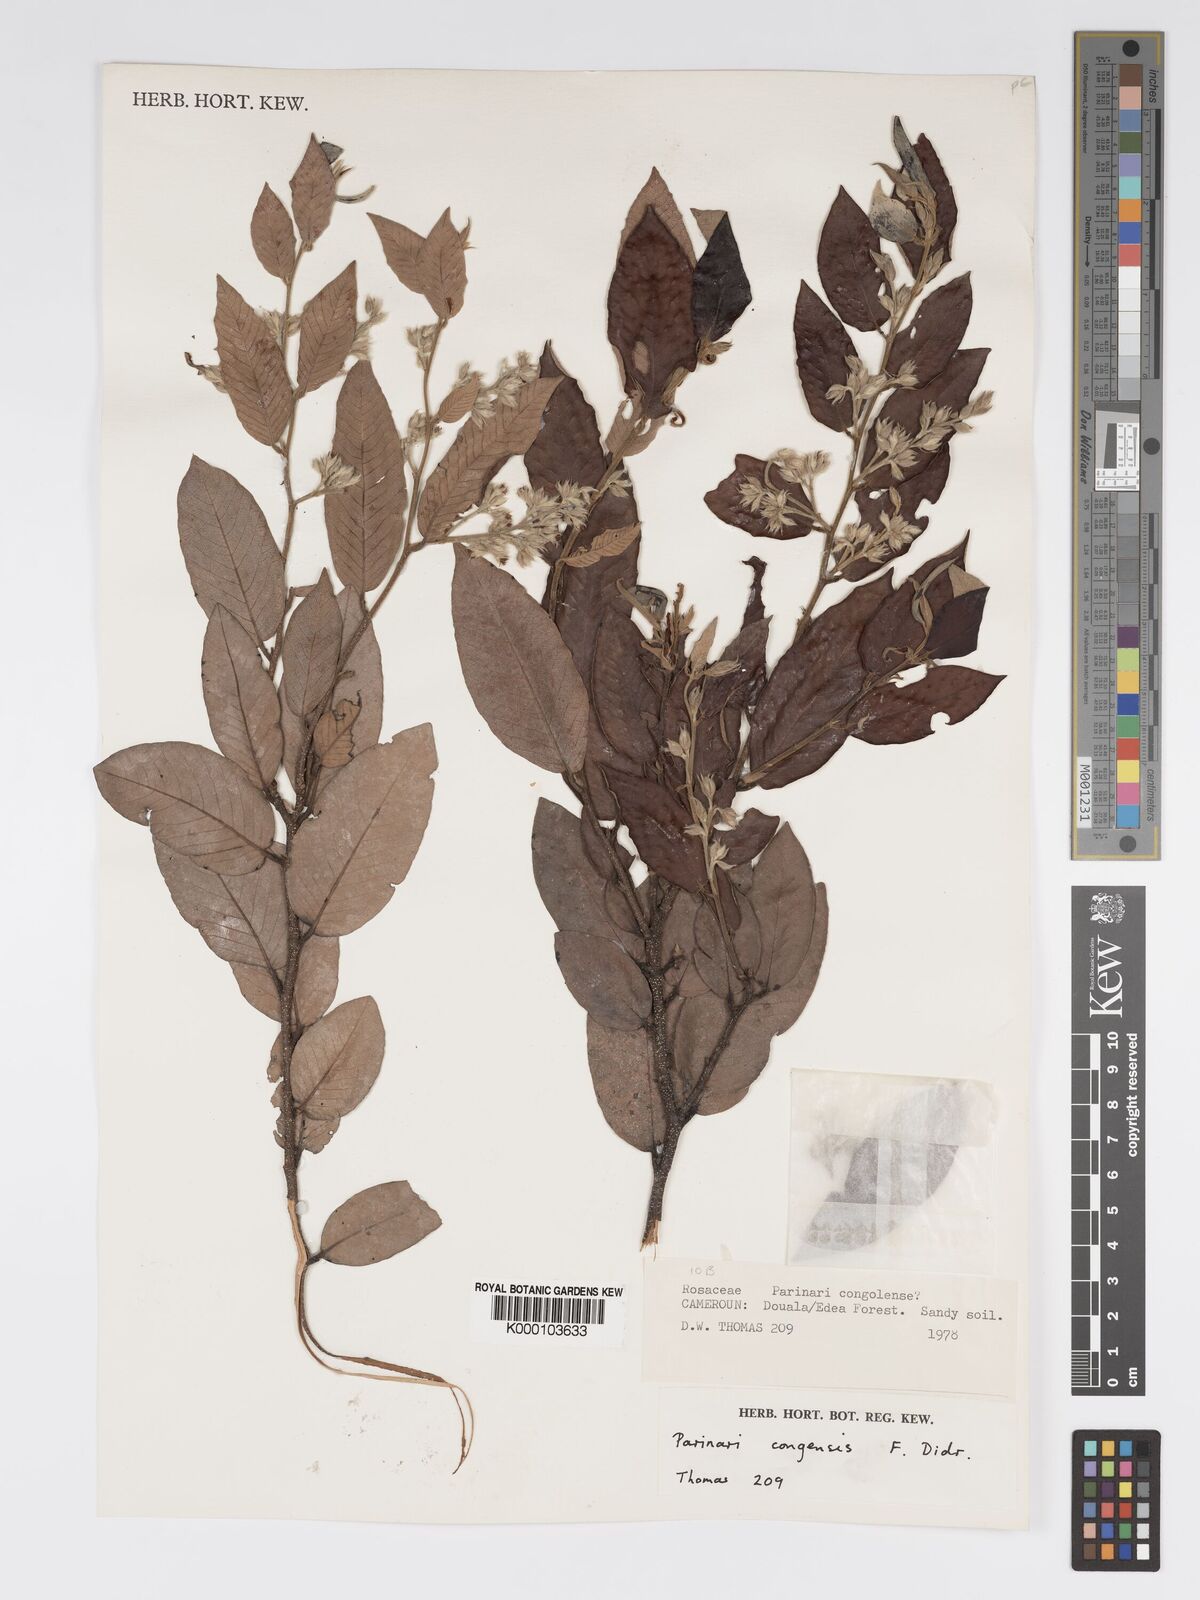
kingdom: Plantae
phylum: Tracheophyta
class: Magnoliopsida
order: Malpighiales
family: Chrysobalanaceae
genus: Parinari
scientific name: Parinari congensis
